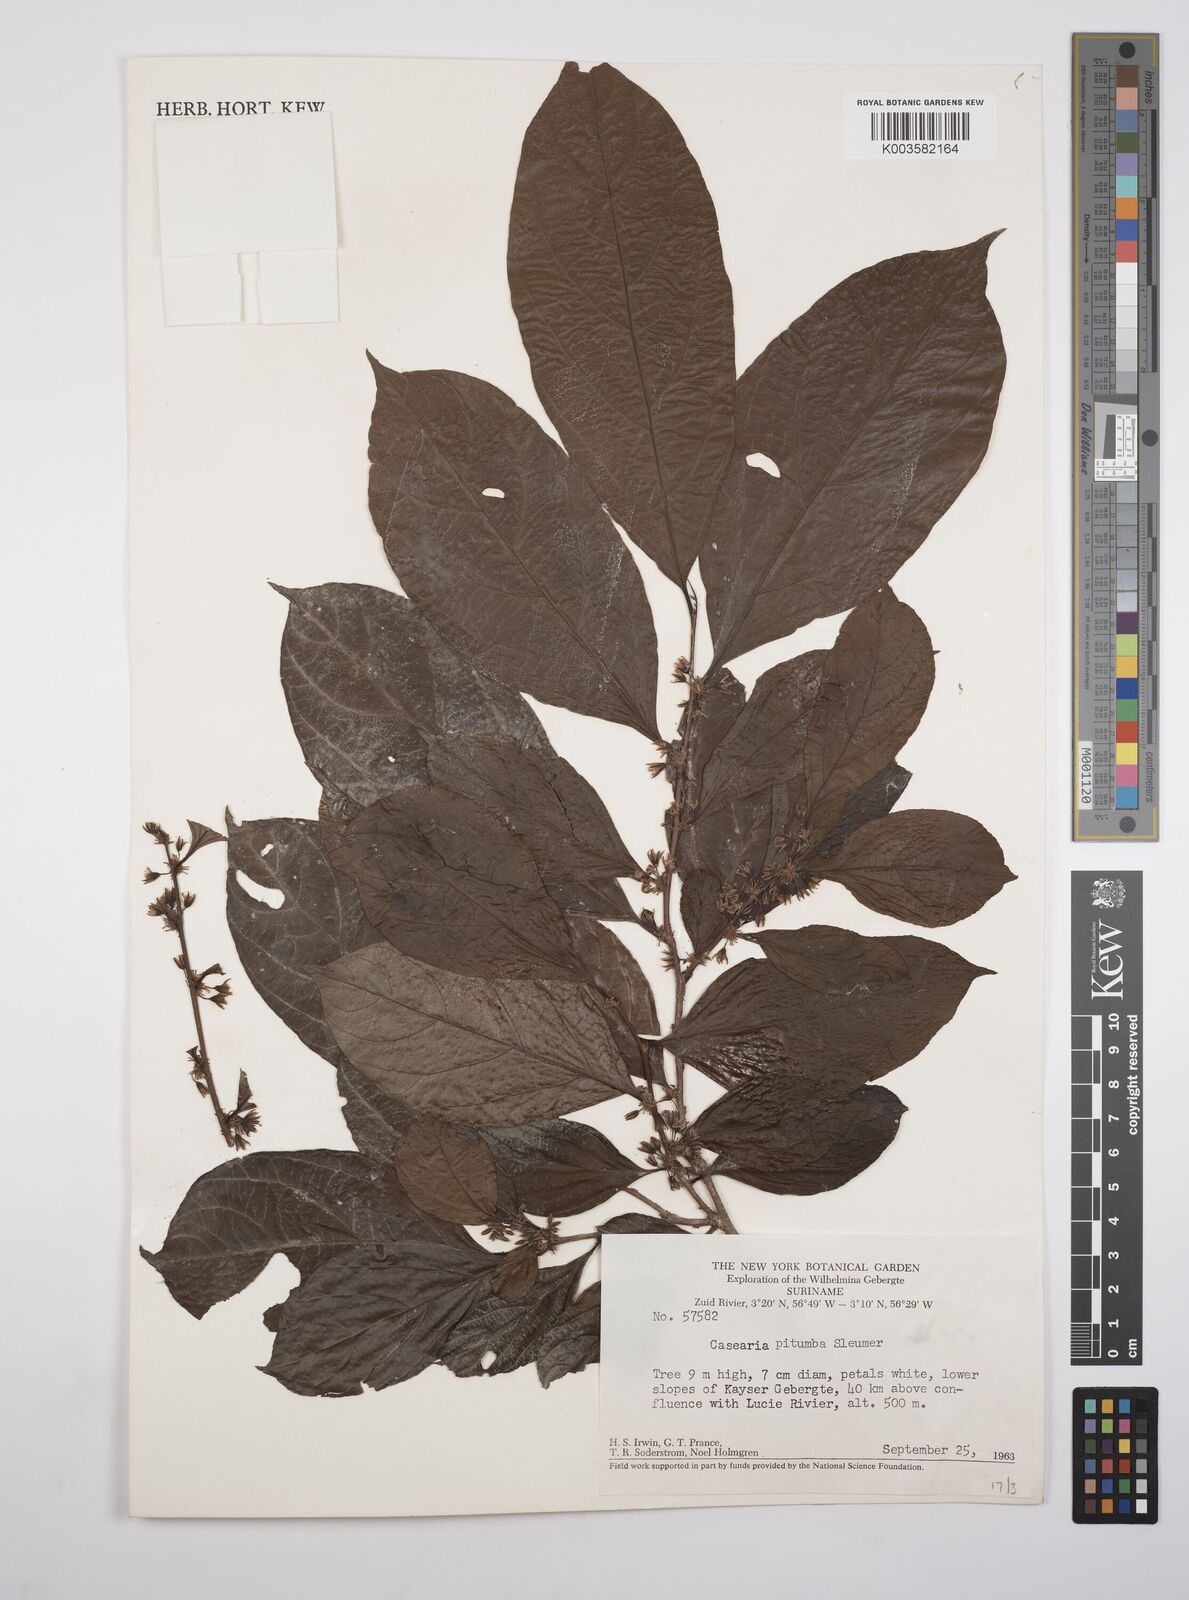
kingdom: Plantae
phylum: Tracheophyta
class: Magnoliopsida
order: Malpighiales
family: Salicaceae
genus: Casearia
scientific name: Casearia pitumba
